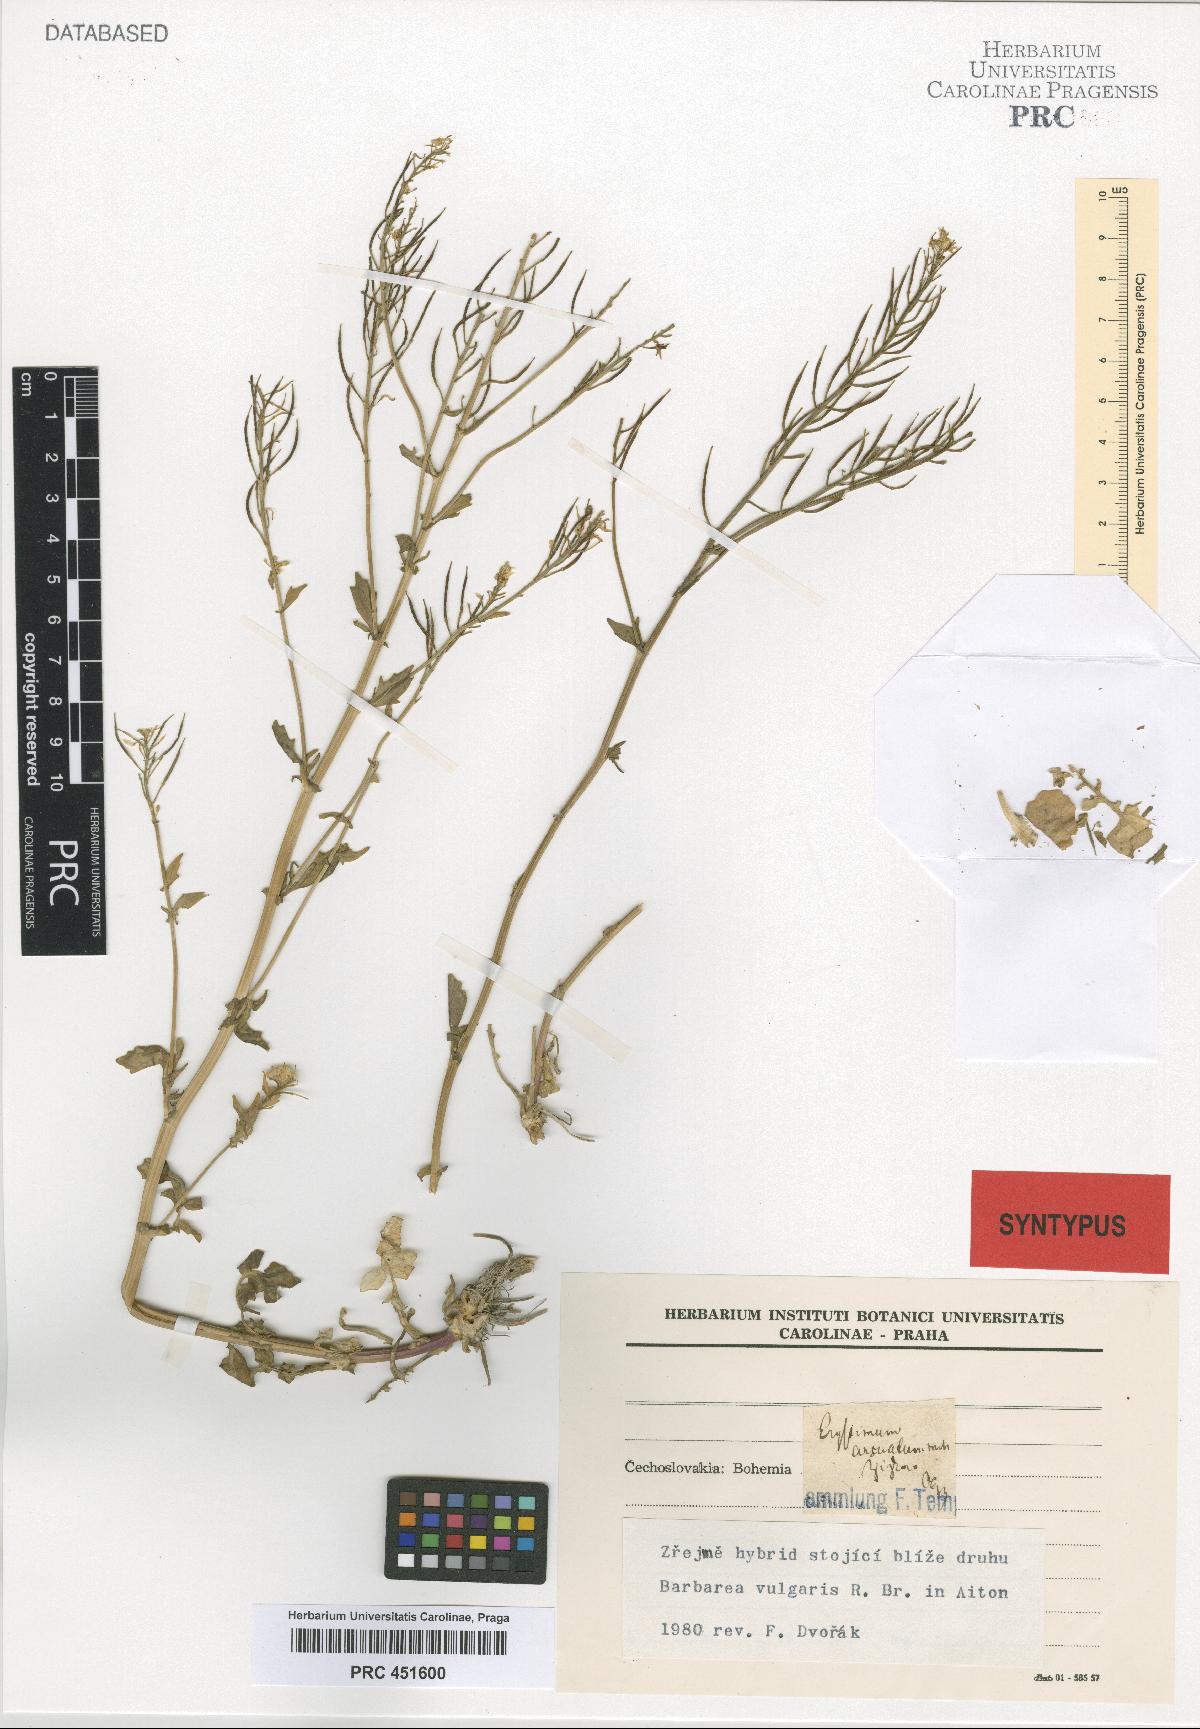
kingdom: Plantae
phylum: Tracheophyta
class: Magnoliopsida
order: Brassicales
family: Brassicaceae
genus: Barbarea
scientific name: Barbarea vulgaris
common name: Cressy-greens
